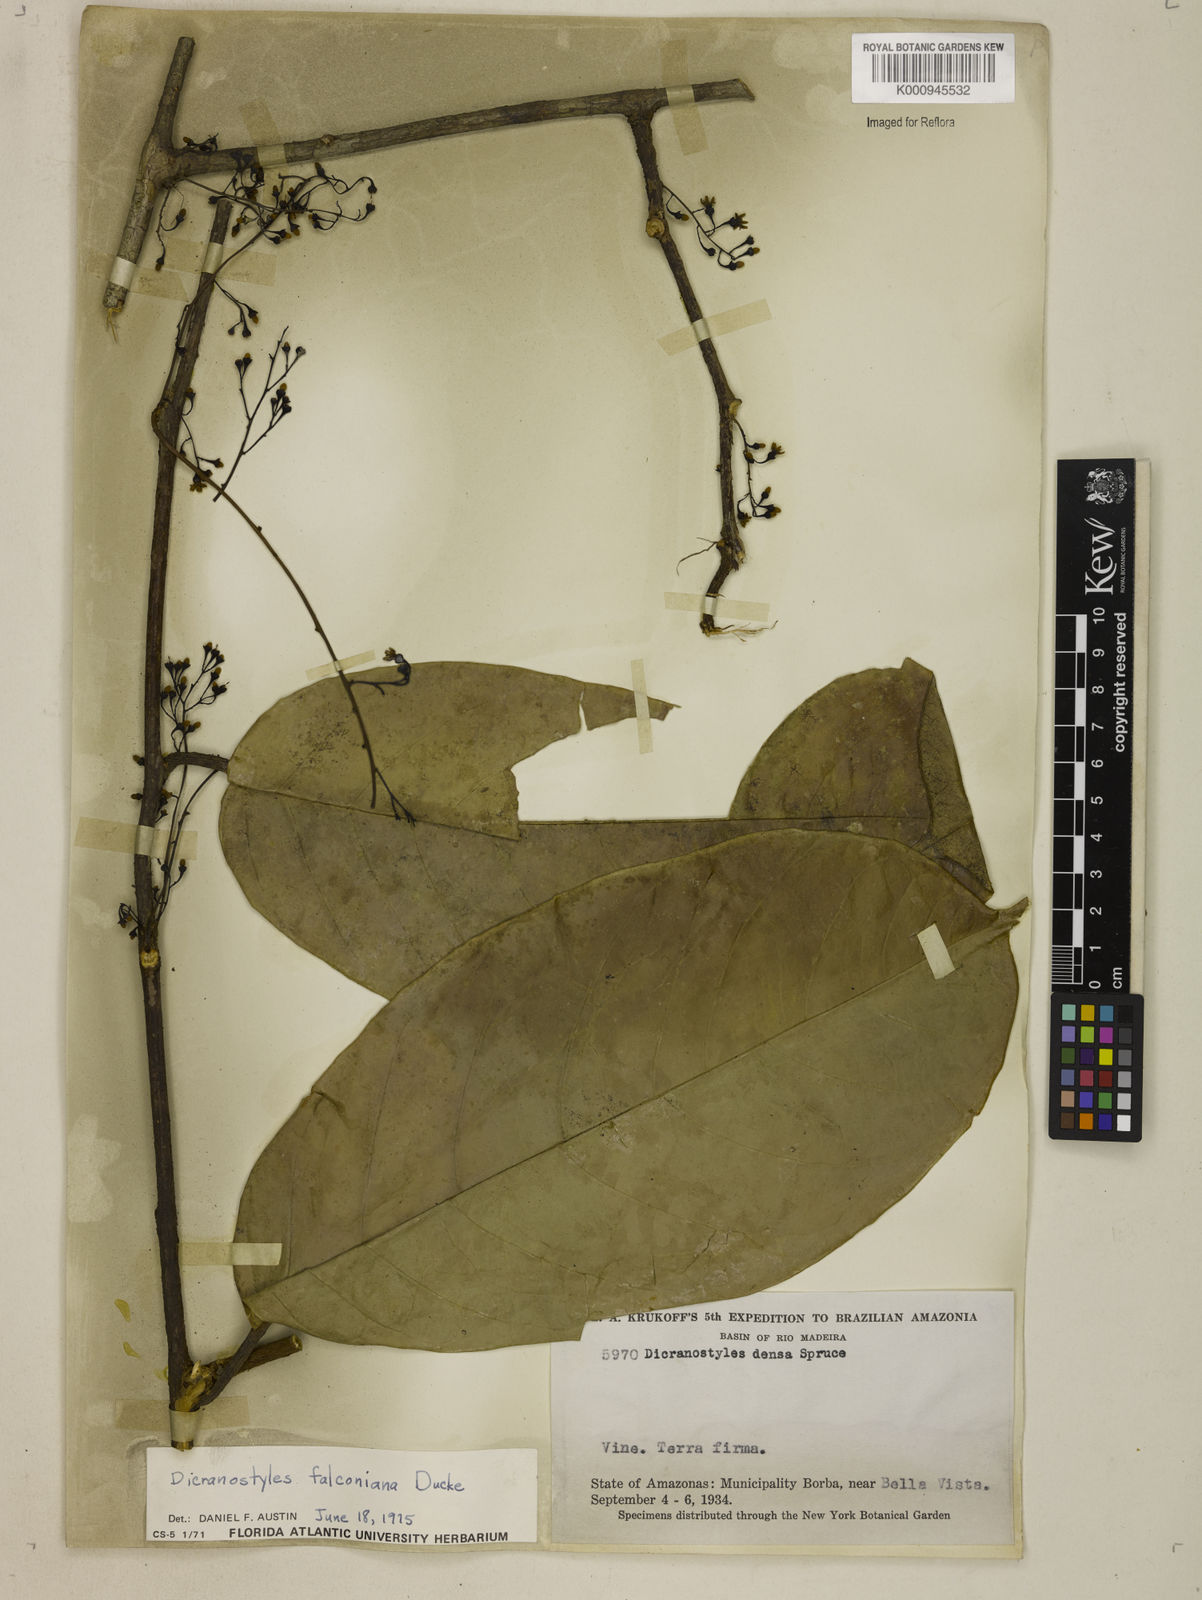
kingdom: Plantae
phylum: Tracheophyta
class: Magnoliopsida
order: Solanales
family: Convolvulaceae
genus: Dicranostyles
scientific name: Dicranostyles falconiana
